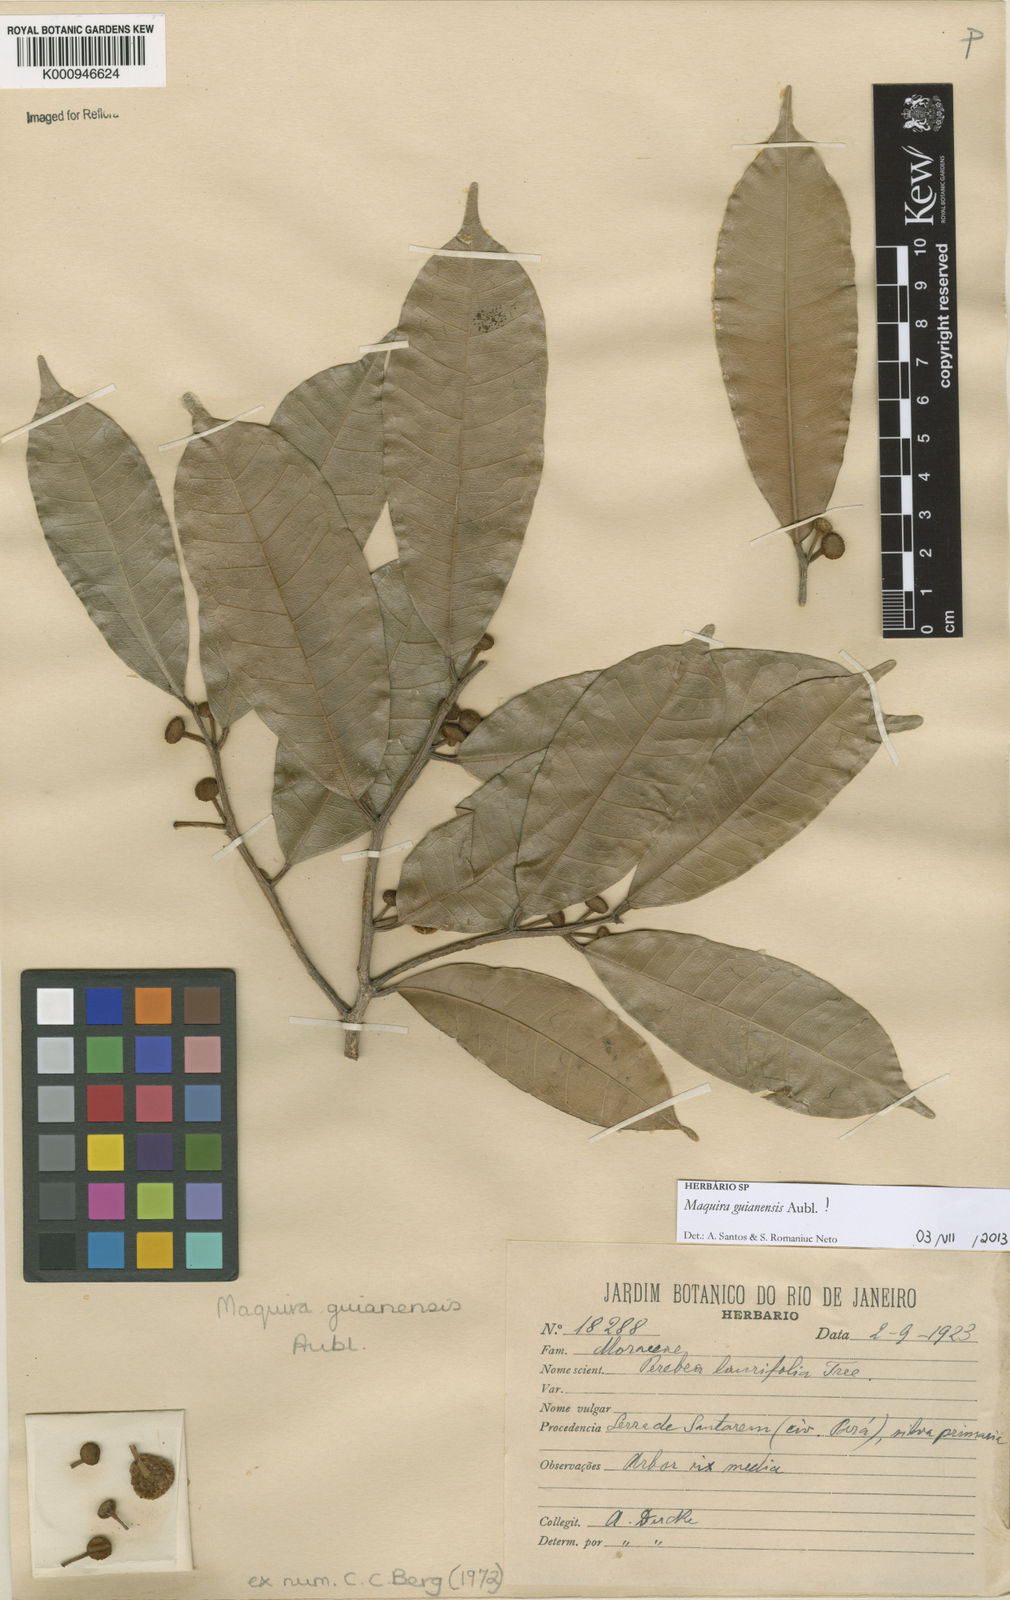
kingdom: Plantae
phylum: Tracheophyta
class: Magnoliopsida
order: Rosales
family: Moraceae
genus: Maquira
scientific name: Maquira guianensis
